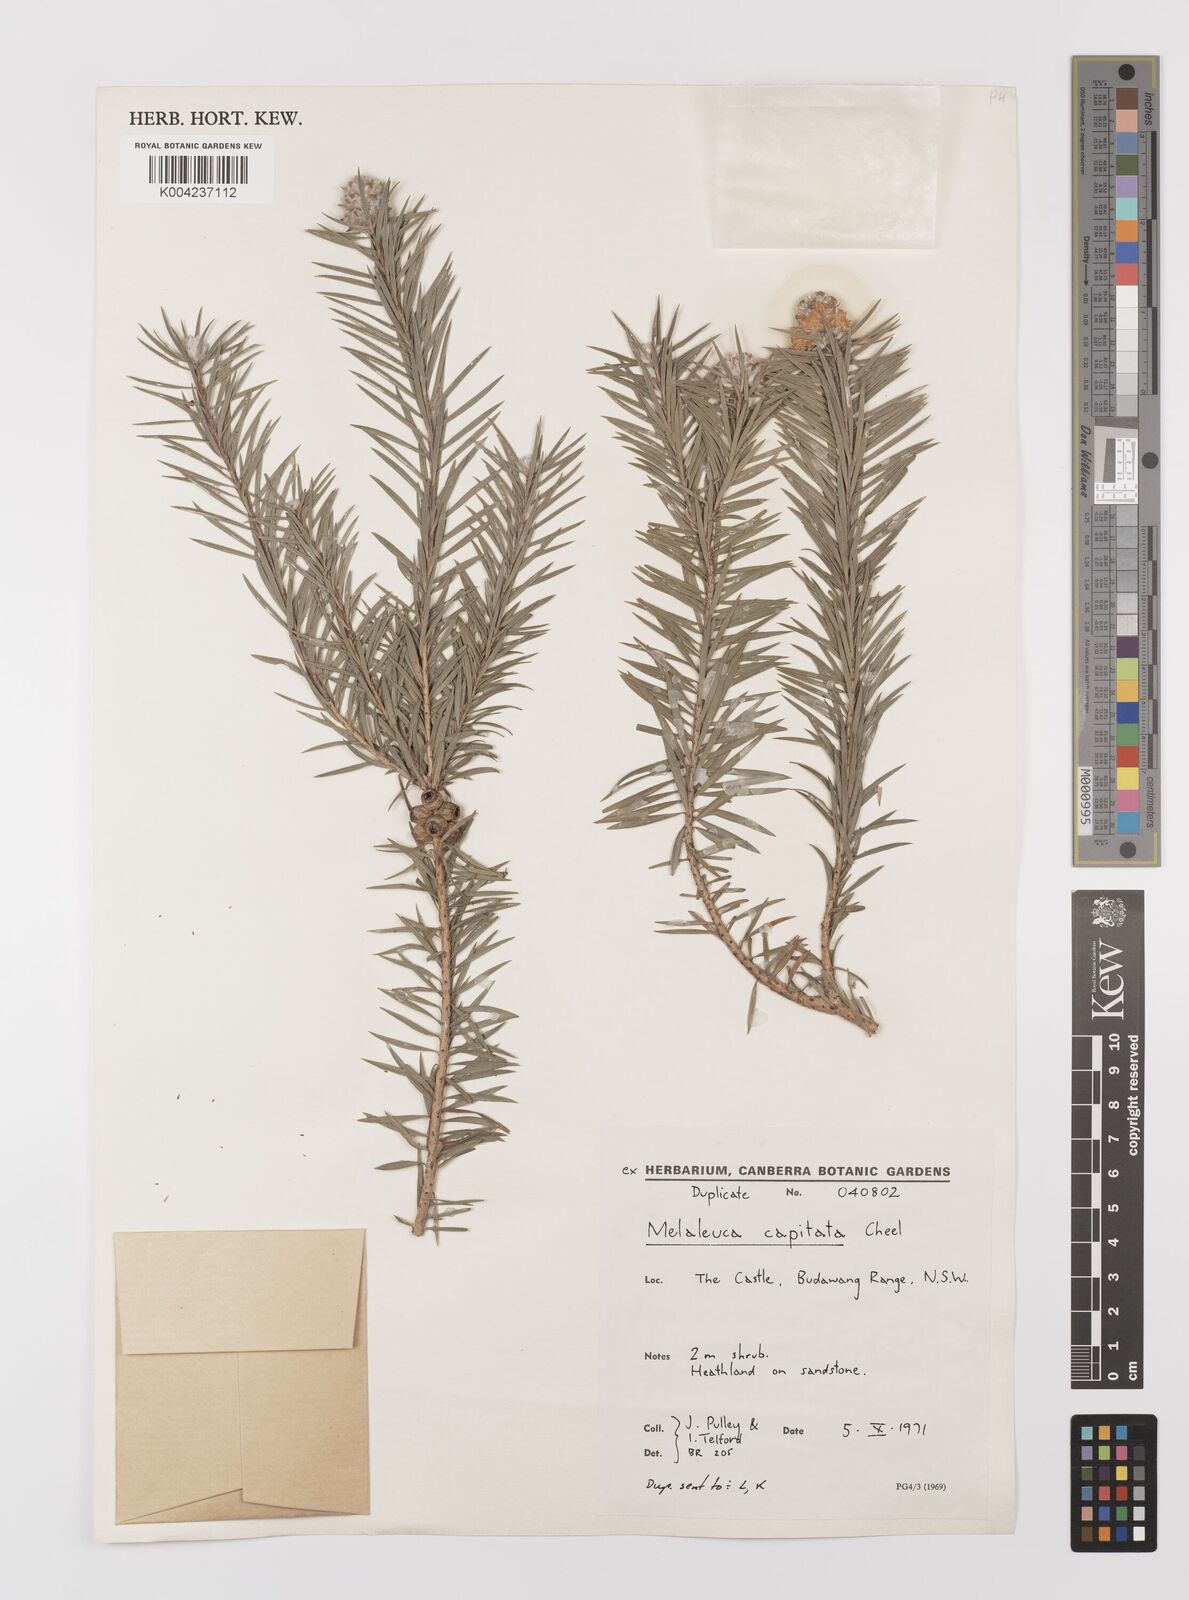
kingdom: Plantae
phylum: Tracheophyta
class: Magnoliopsida
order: Myrtales
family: Myrtaceae
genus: Melaleuca
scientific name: Melaleuca capitata
